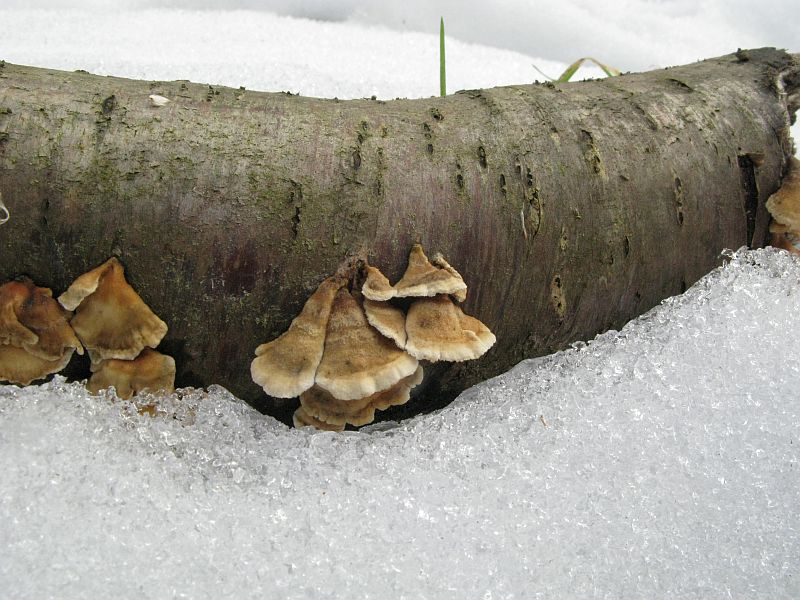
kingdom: Fungi
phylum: Basidiomycota
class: Agaricomycetes
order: Amylocorticiales
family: Amylocorticiaceae
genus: Plicaturopsis
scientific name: Plicaturopsis crispa
